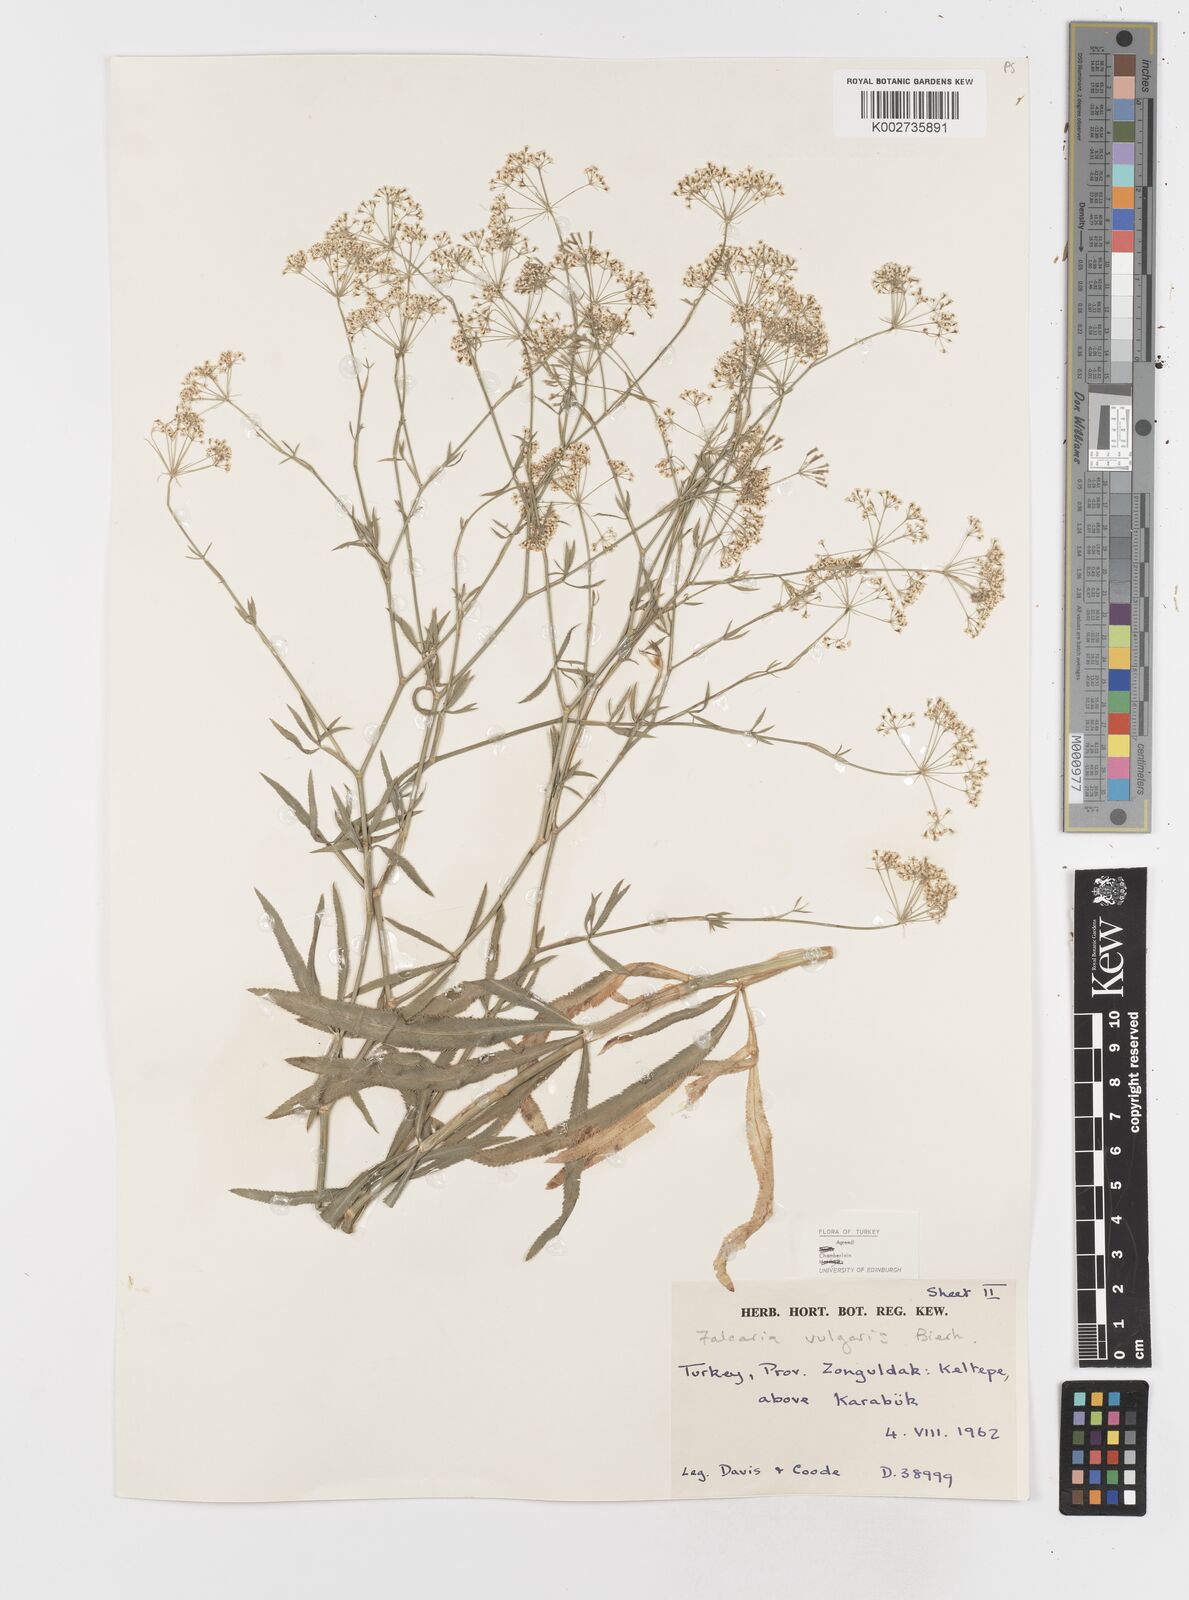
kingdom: Plantae
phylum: Tracheophyta
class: Magnoliopsida
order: Apiales
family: Apiaceae
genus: Falcaria
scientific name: Falcaria vulgaris
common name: Longleaf
